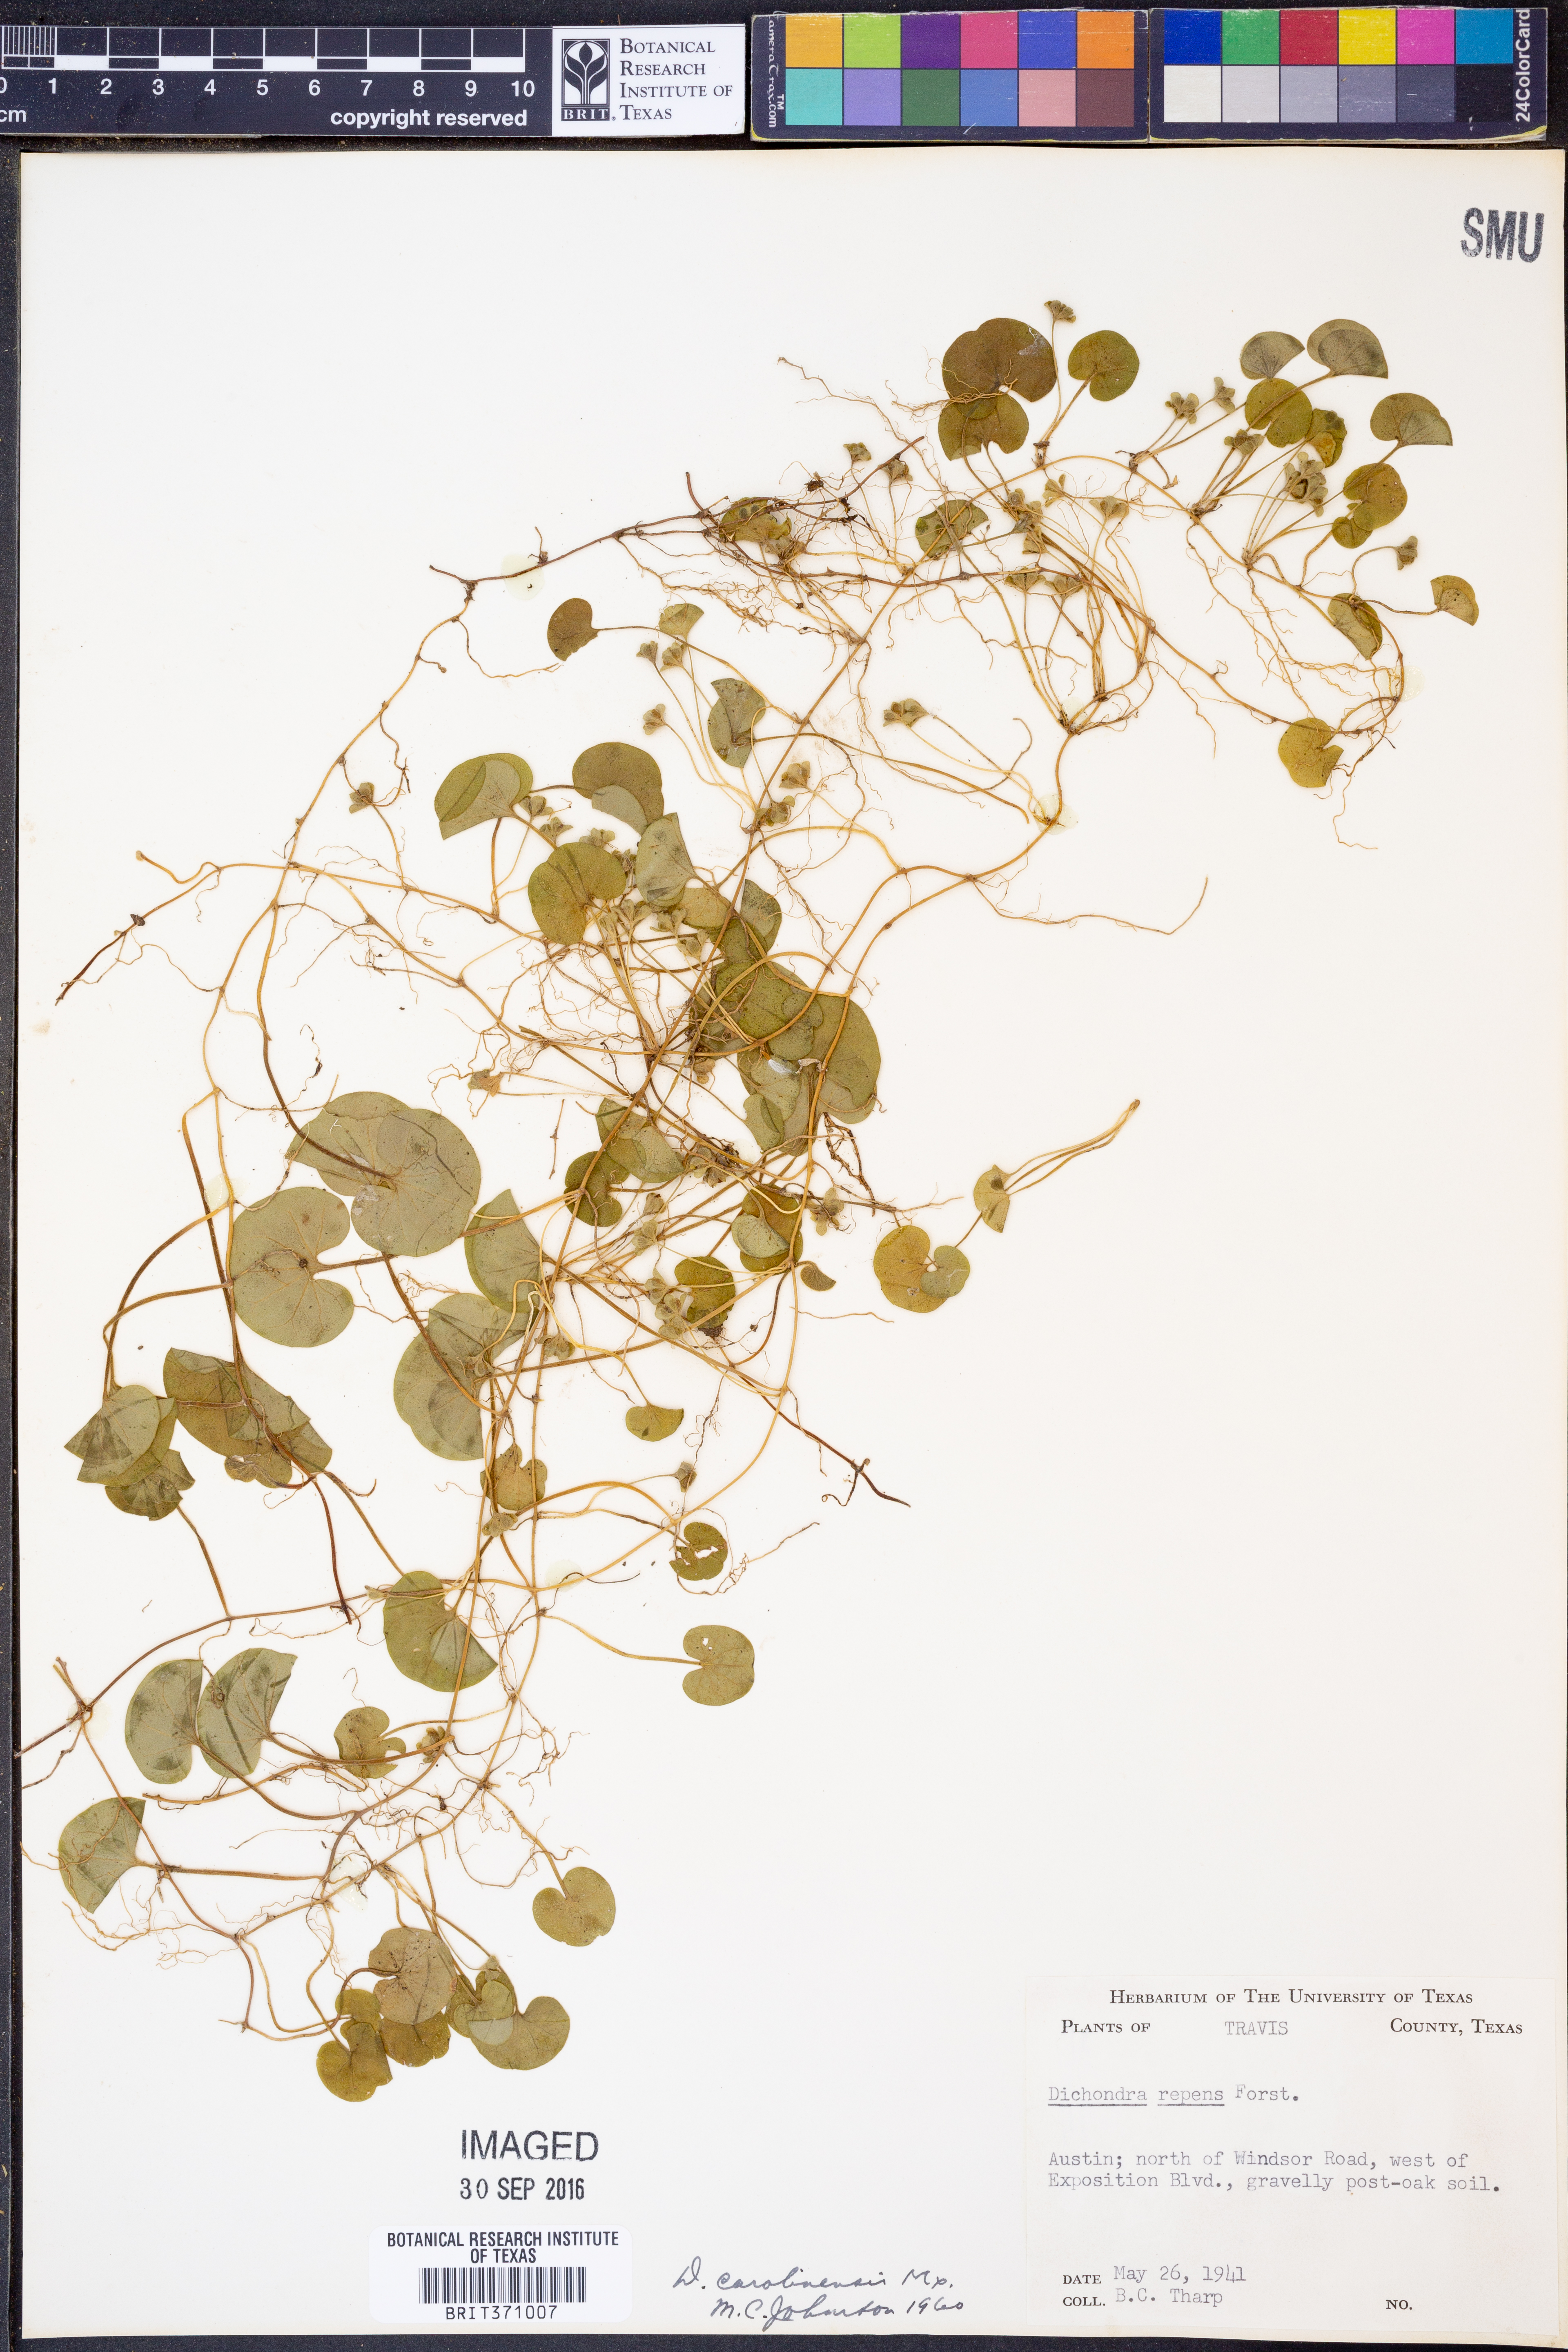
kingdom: Plantae
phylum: Tracheophyta
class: Magnoliopsida
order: Solanales
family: Convolvulaceae
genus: Dichondra
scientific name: Dichondra carolinensis
